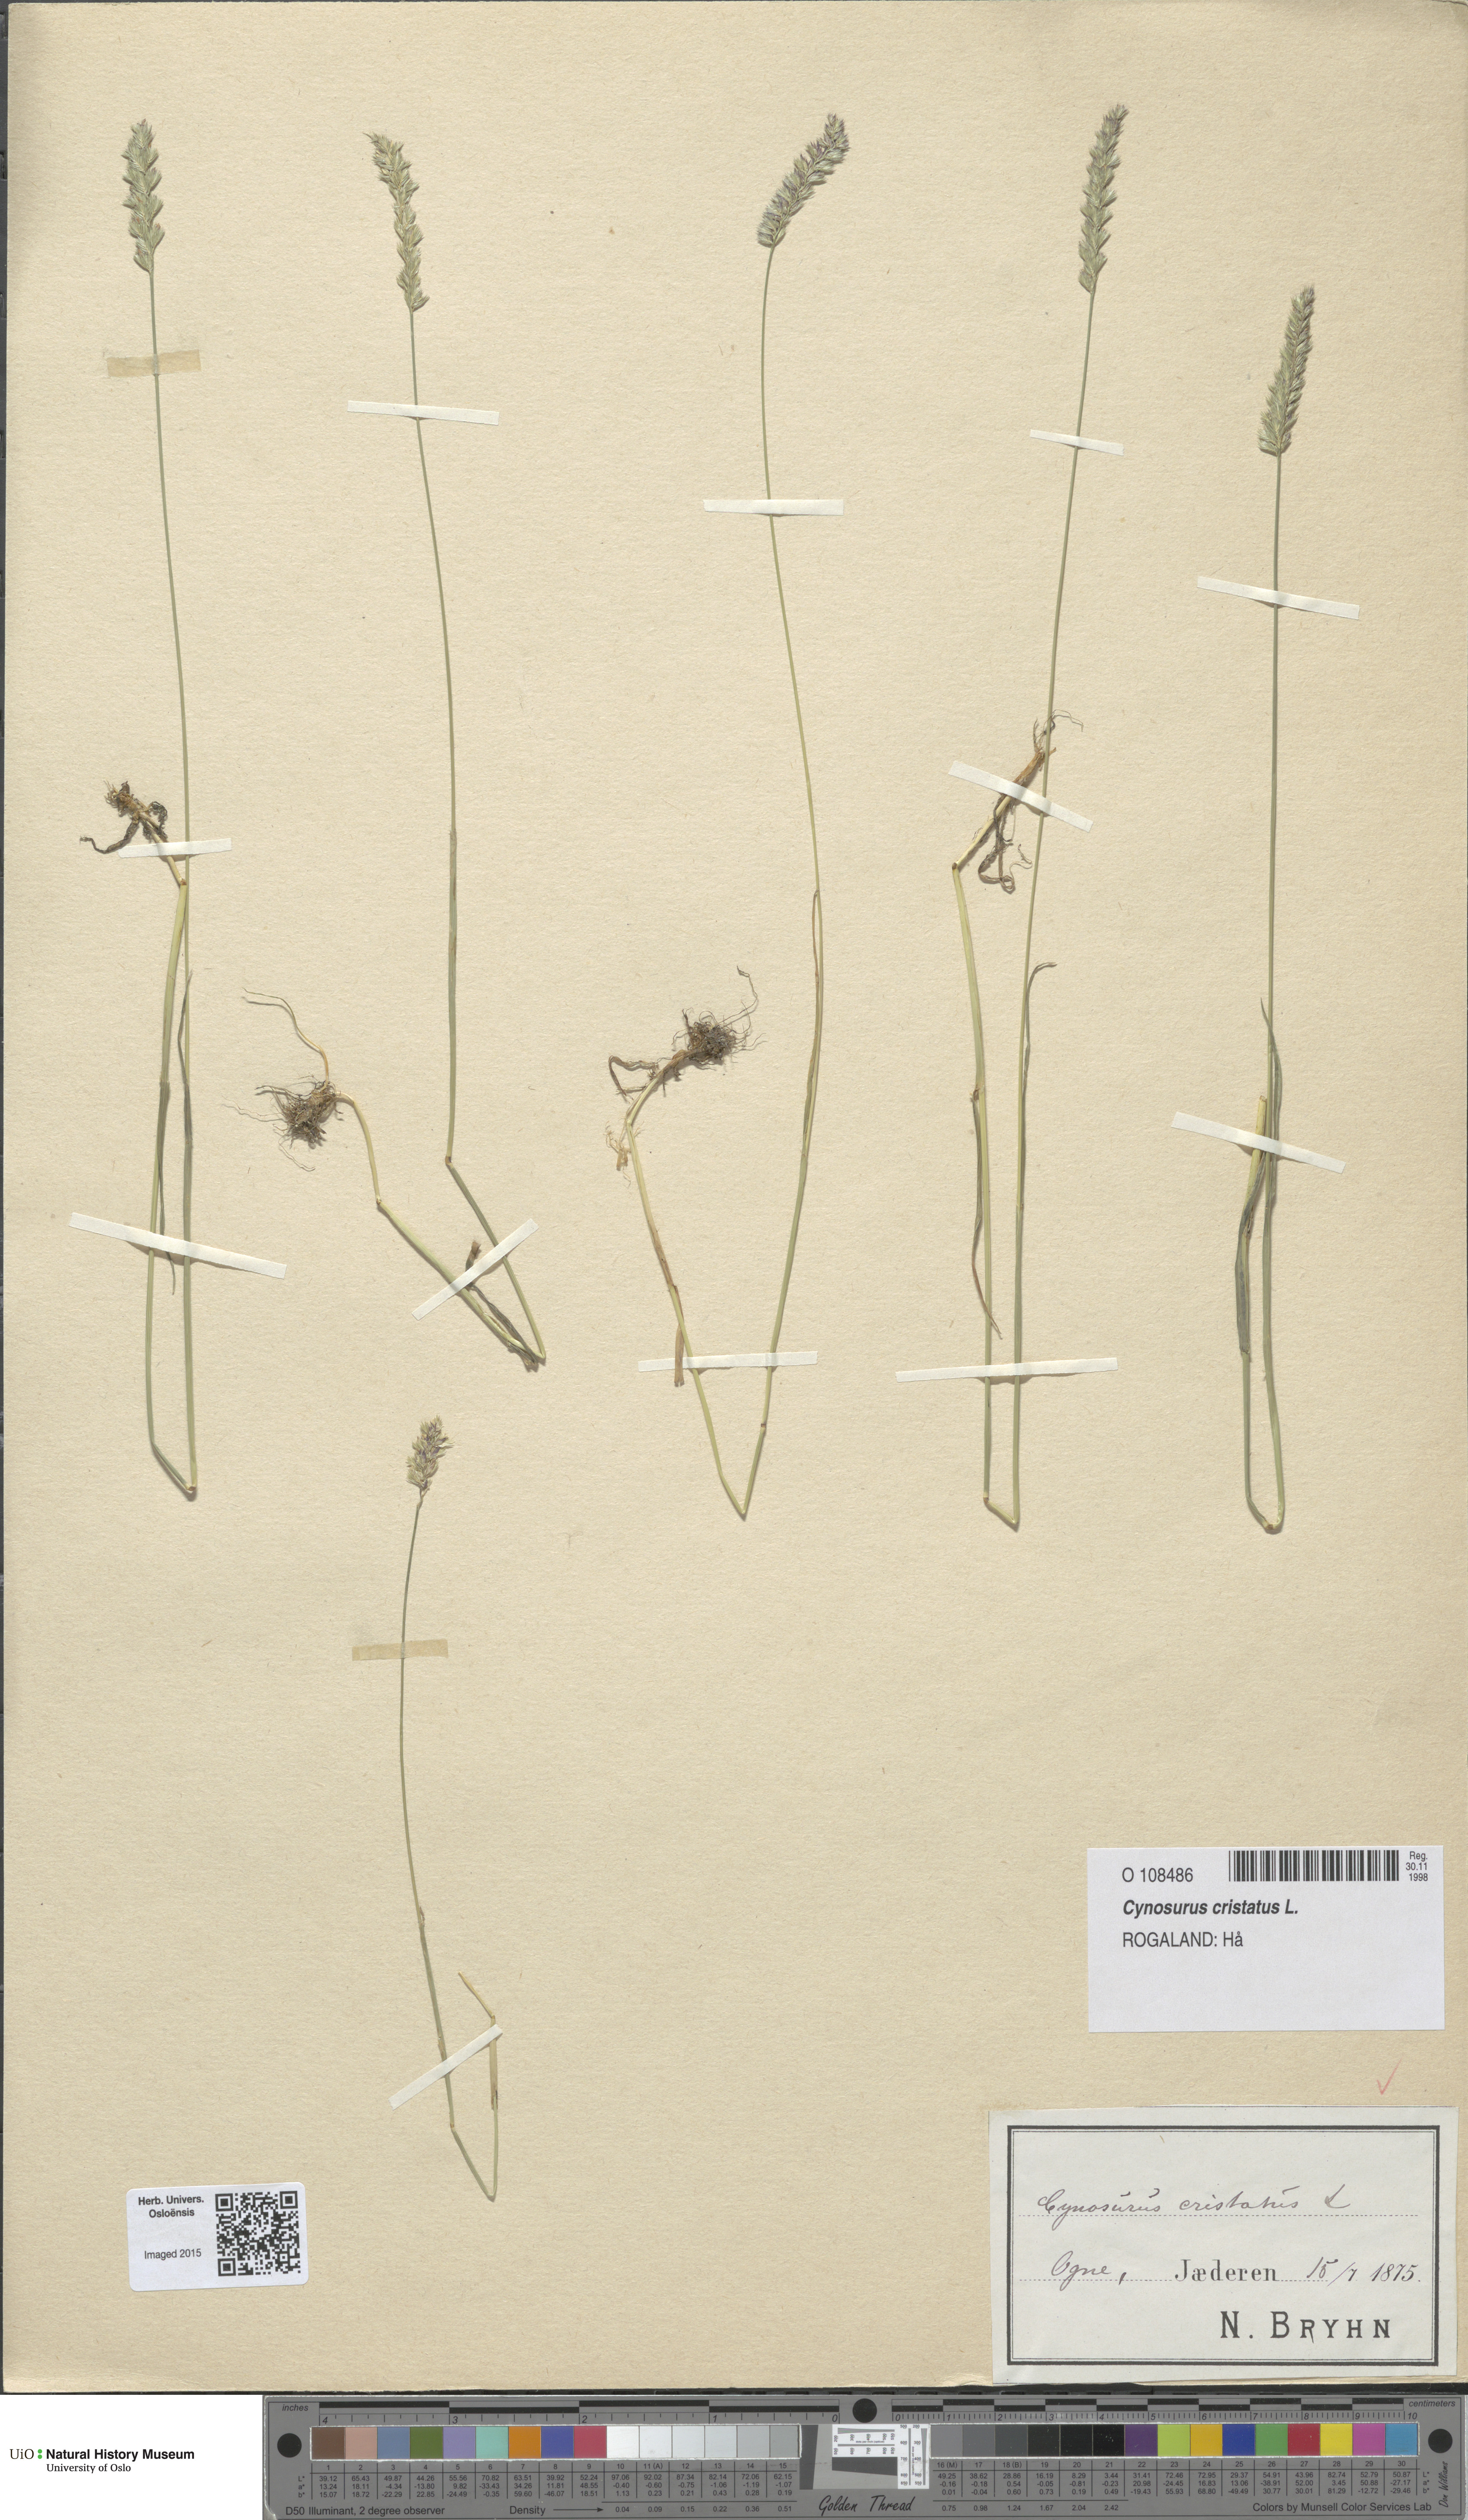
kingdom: Plantae
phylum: Tracheophyta
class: Liliopsida
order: Poales
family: Poaceae
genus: Cynosurus
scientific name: Cynosurus cristatus
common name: Crested dog's-tail
